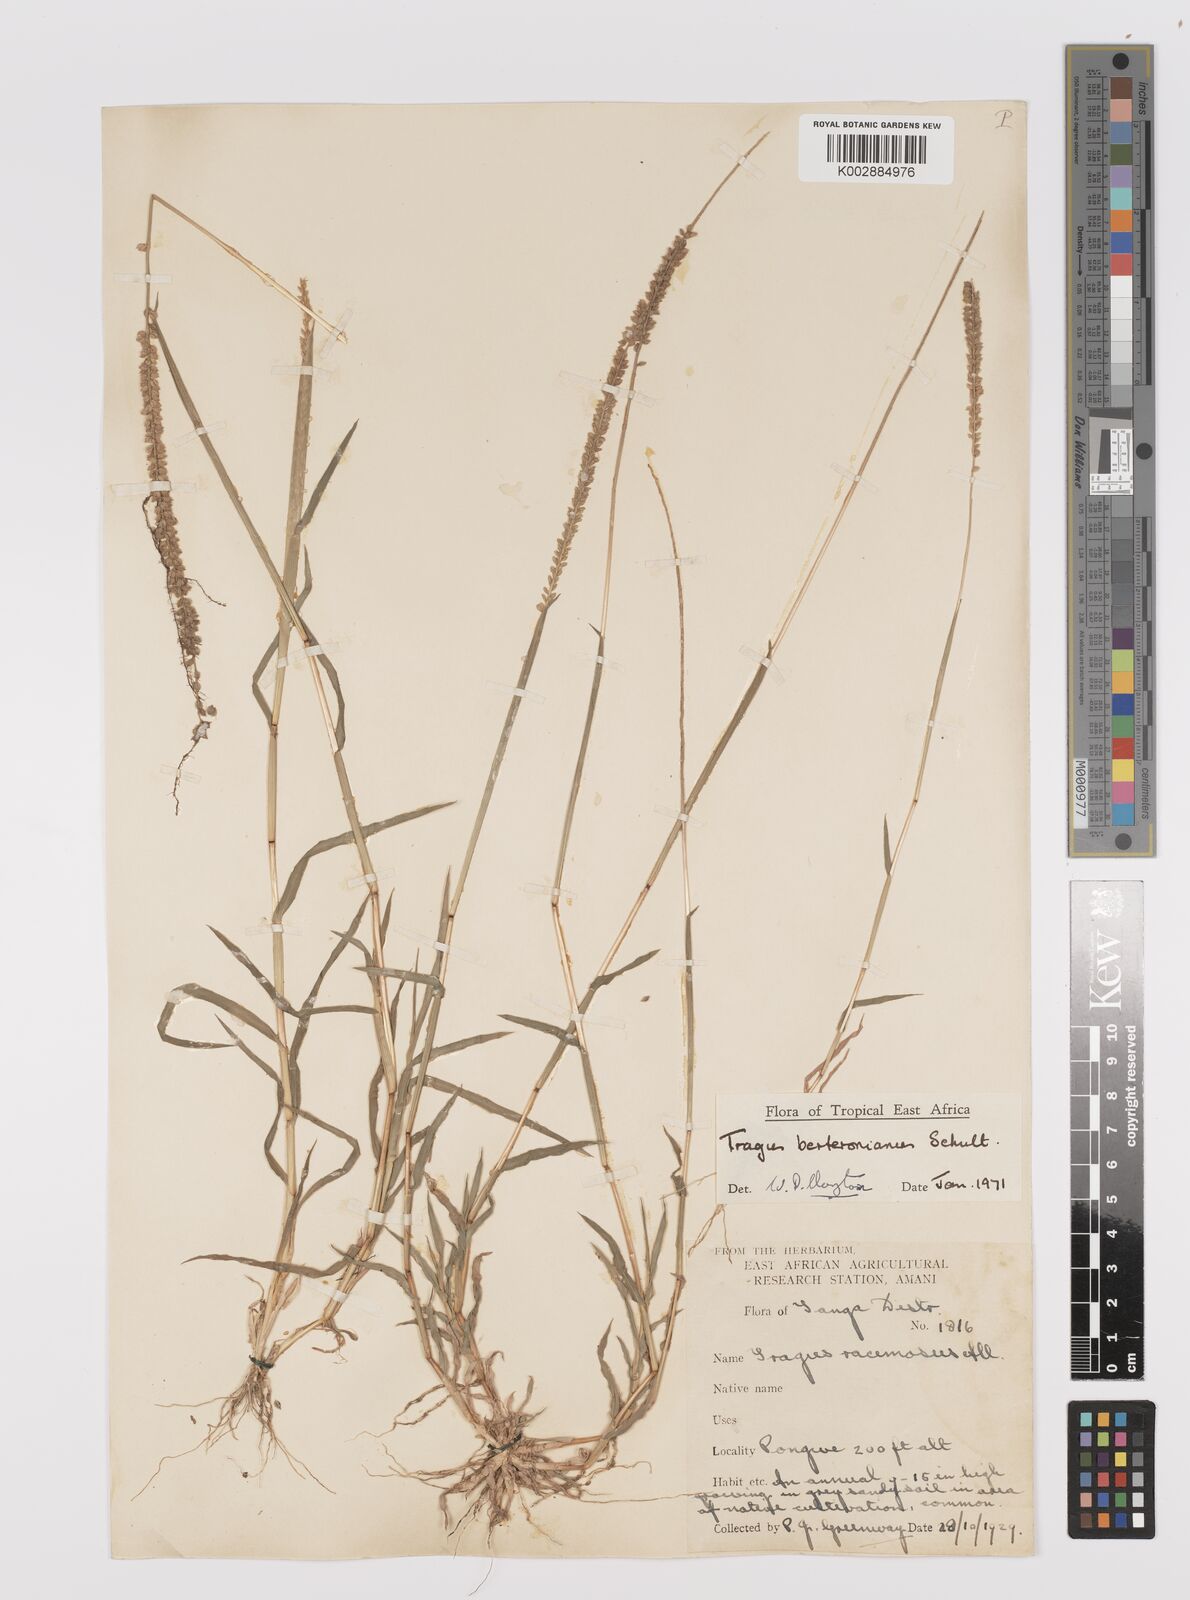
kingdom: Plantae
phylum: Tracheophyta
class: Liliopsida
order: Poales
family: Poaceae
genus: Tragus
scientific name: Tragus berteronianus
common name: African bur-grass
